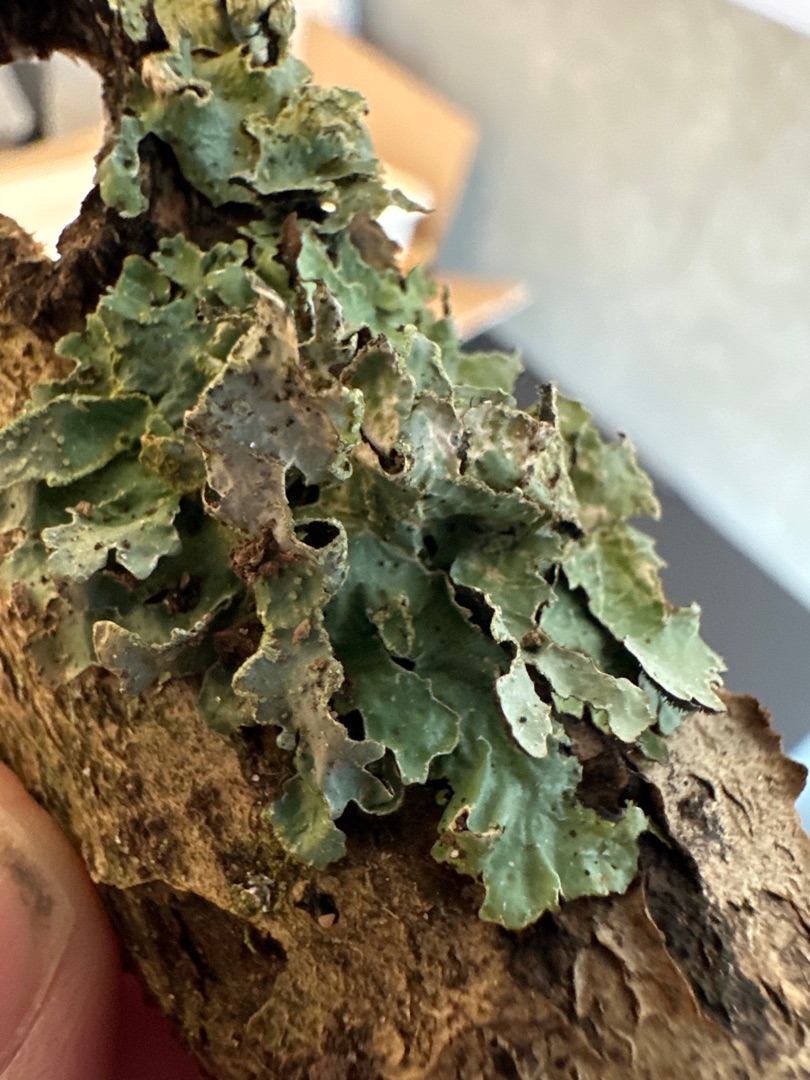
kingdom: Fungi
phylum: Ascomycota
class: Lecanoromycetes
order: Lecanorales
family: Parmeliaceae
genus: Parmelia
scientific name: Parmelia sulcata
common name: Rynket skållav
